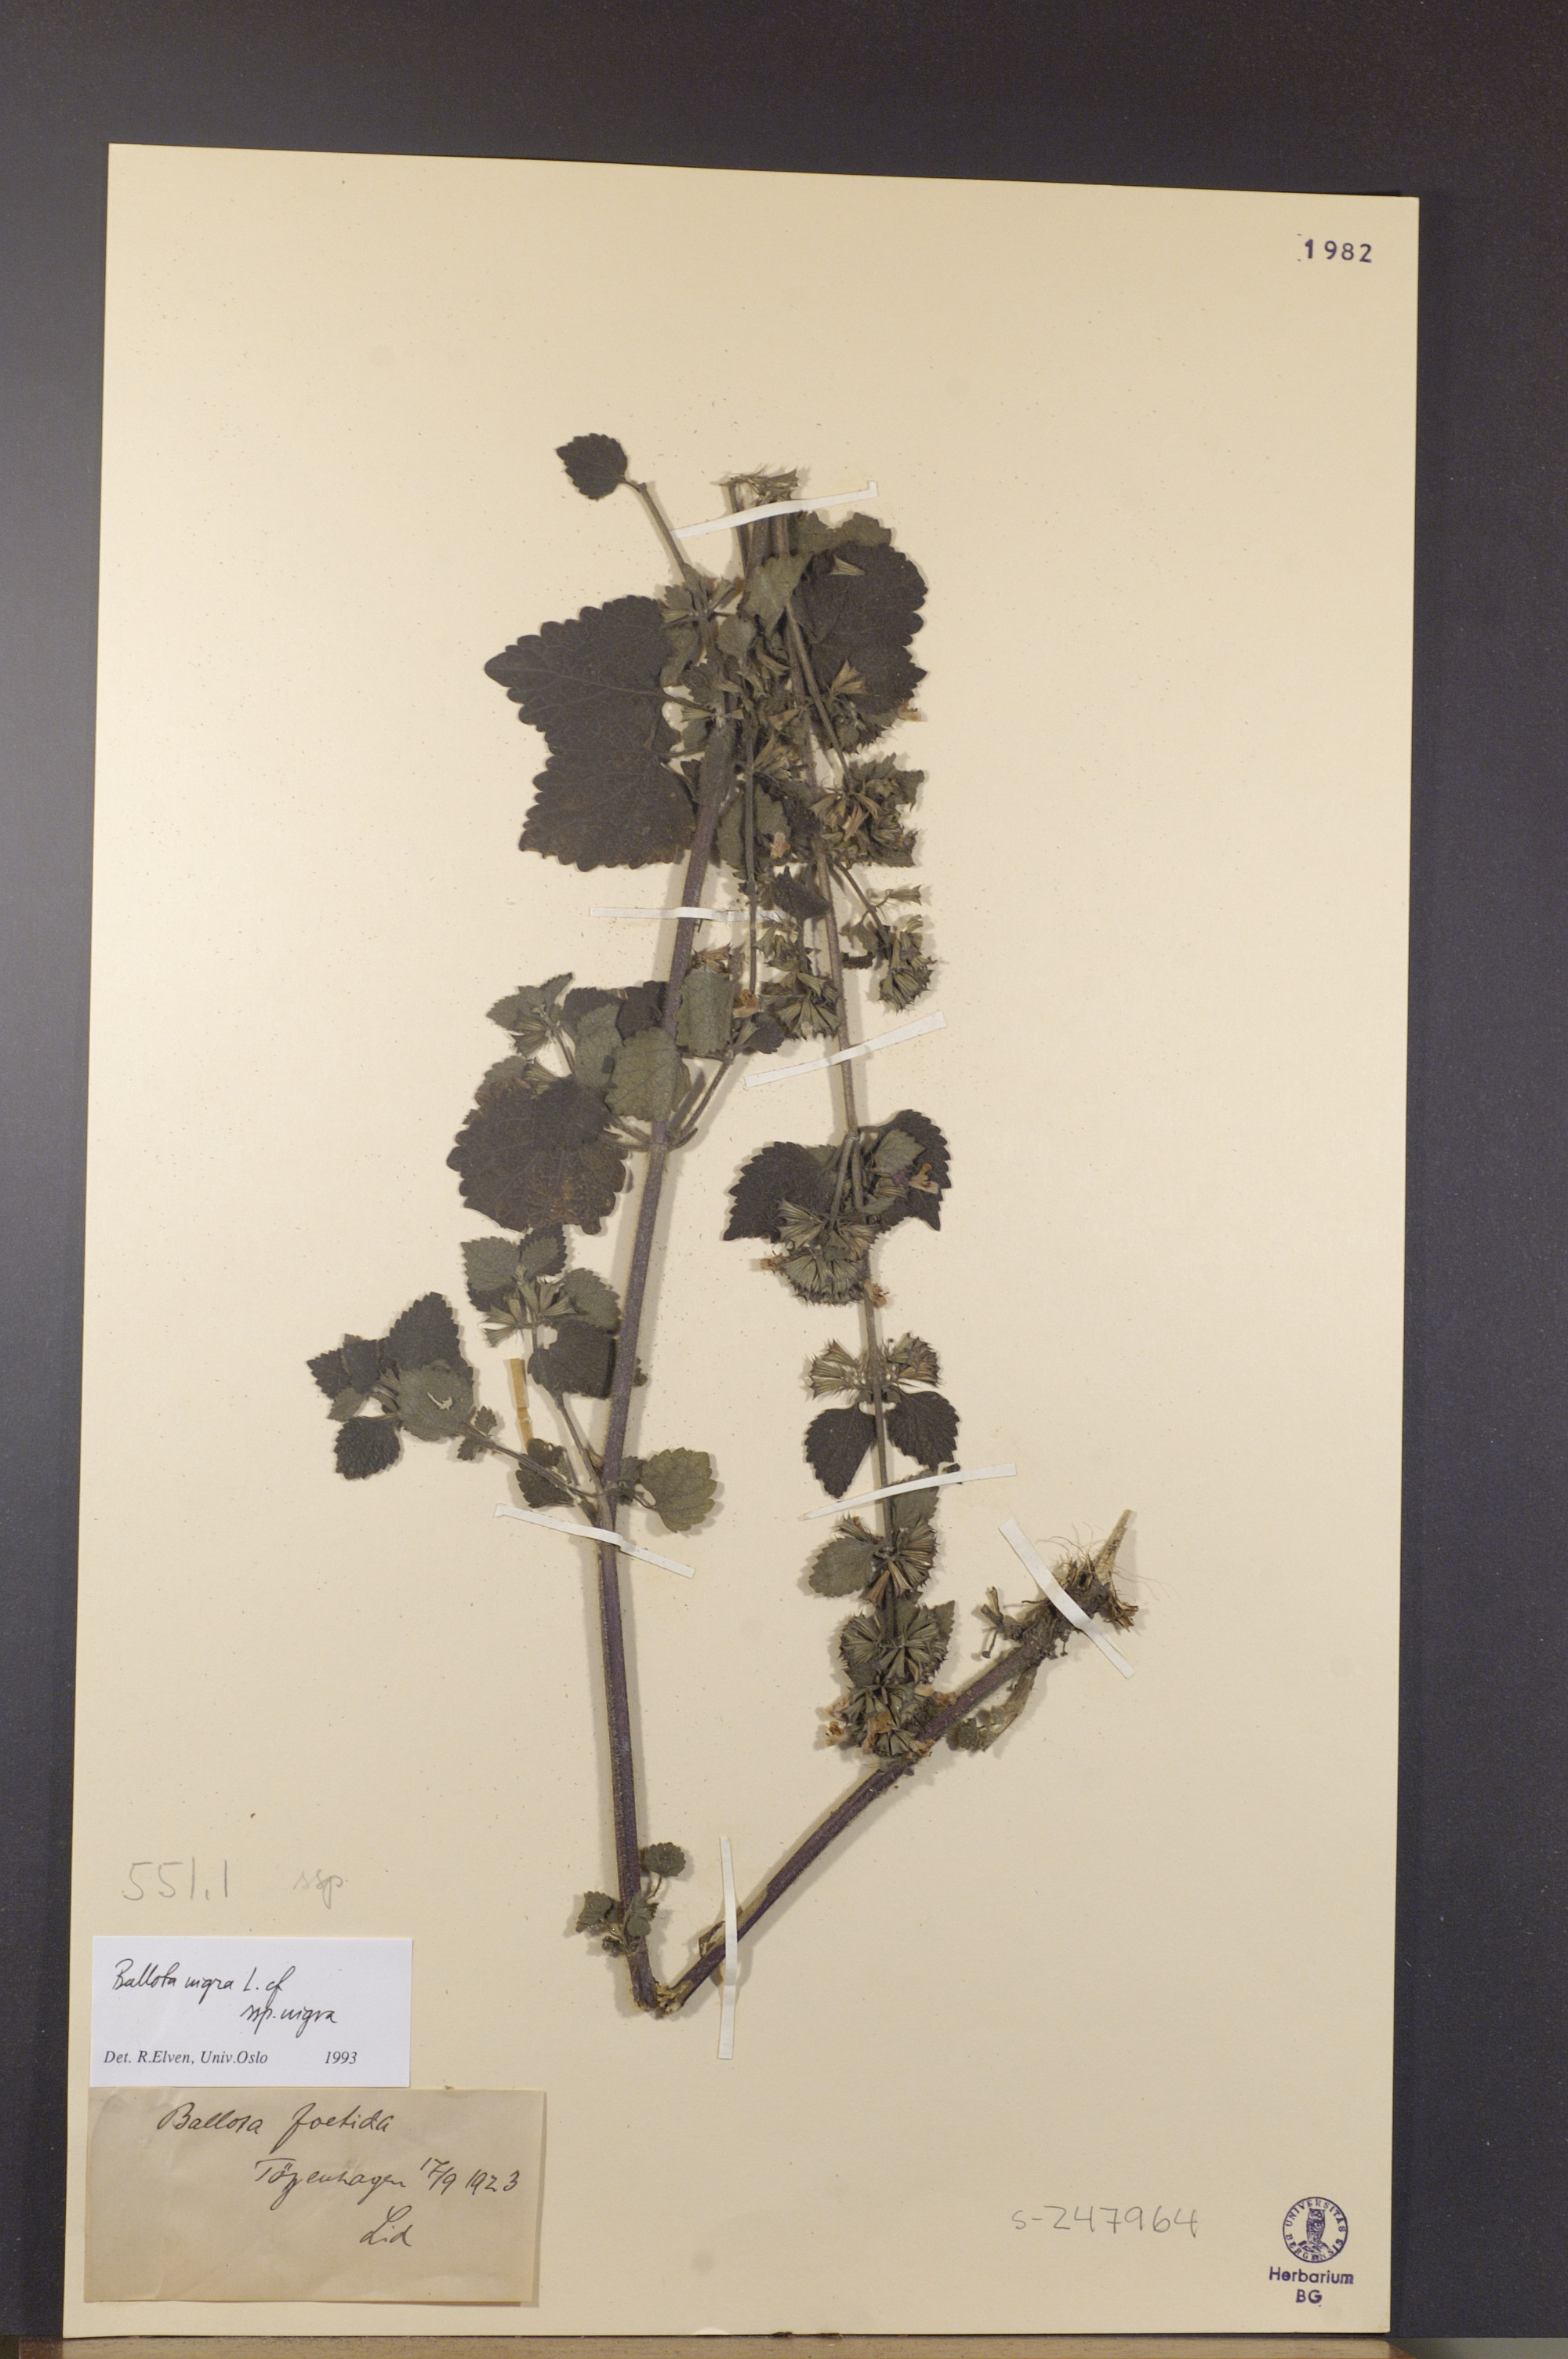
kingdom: Plantae
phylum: Tracheophyta
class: Magnoliopsida
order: Lamiales
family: Lamiaceae
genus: Ballota
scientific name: Ballota nigra
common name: Black horehound
